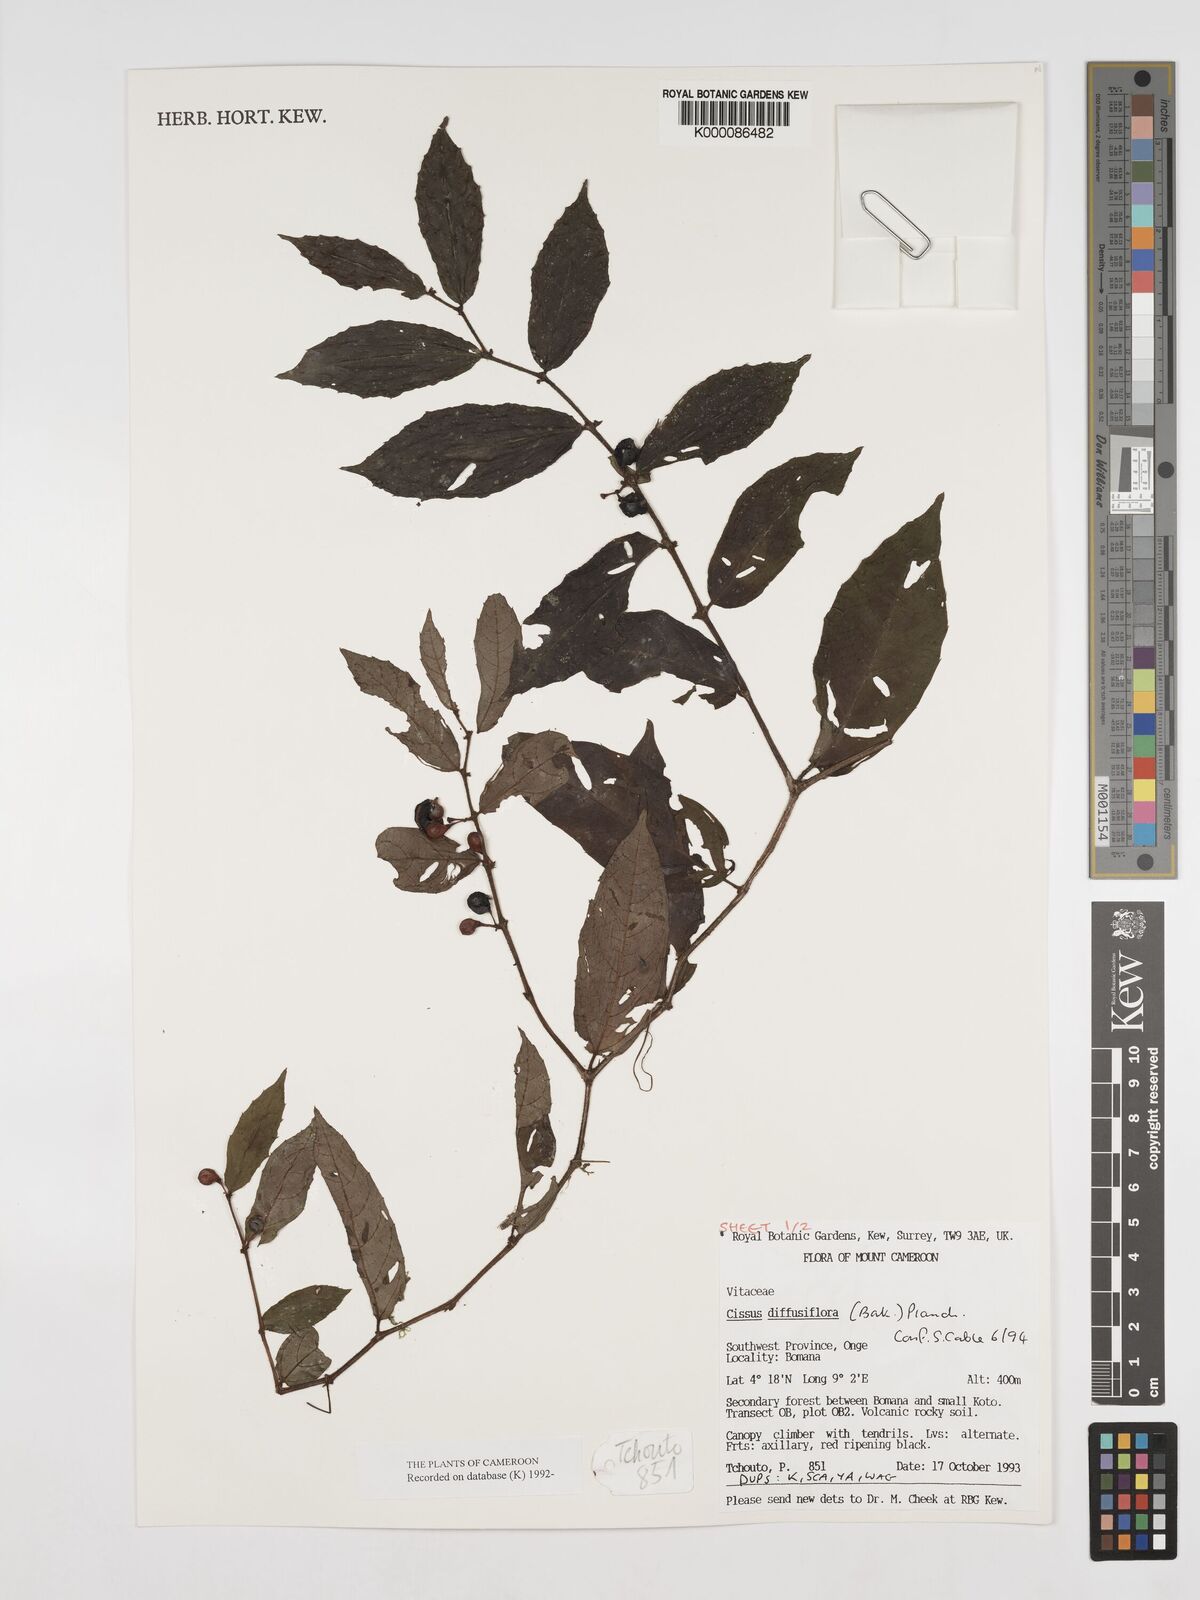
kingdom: Plantae
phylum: Tracheophyta
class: Magnoliopsida
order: Vitales
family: Vitaceae
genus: Cissus
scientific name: Cissus diffusiflora
